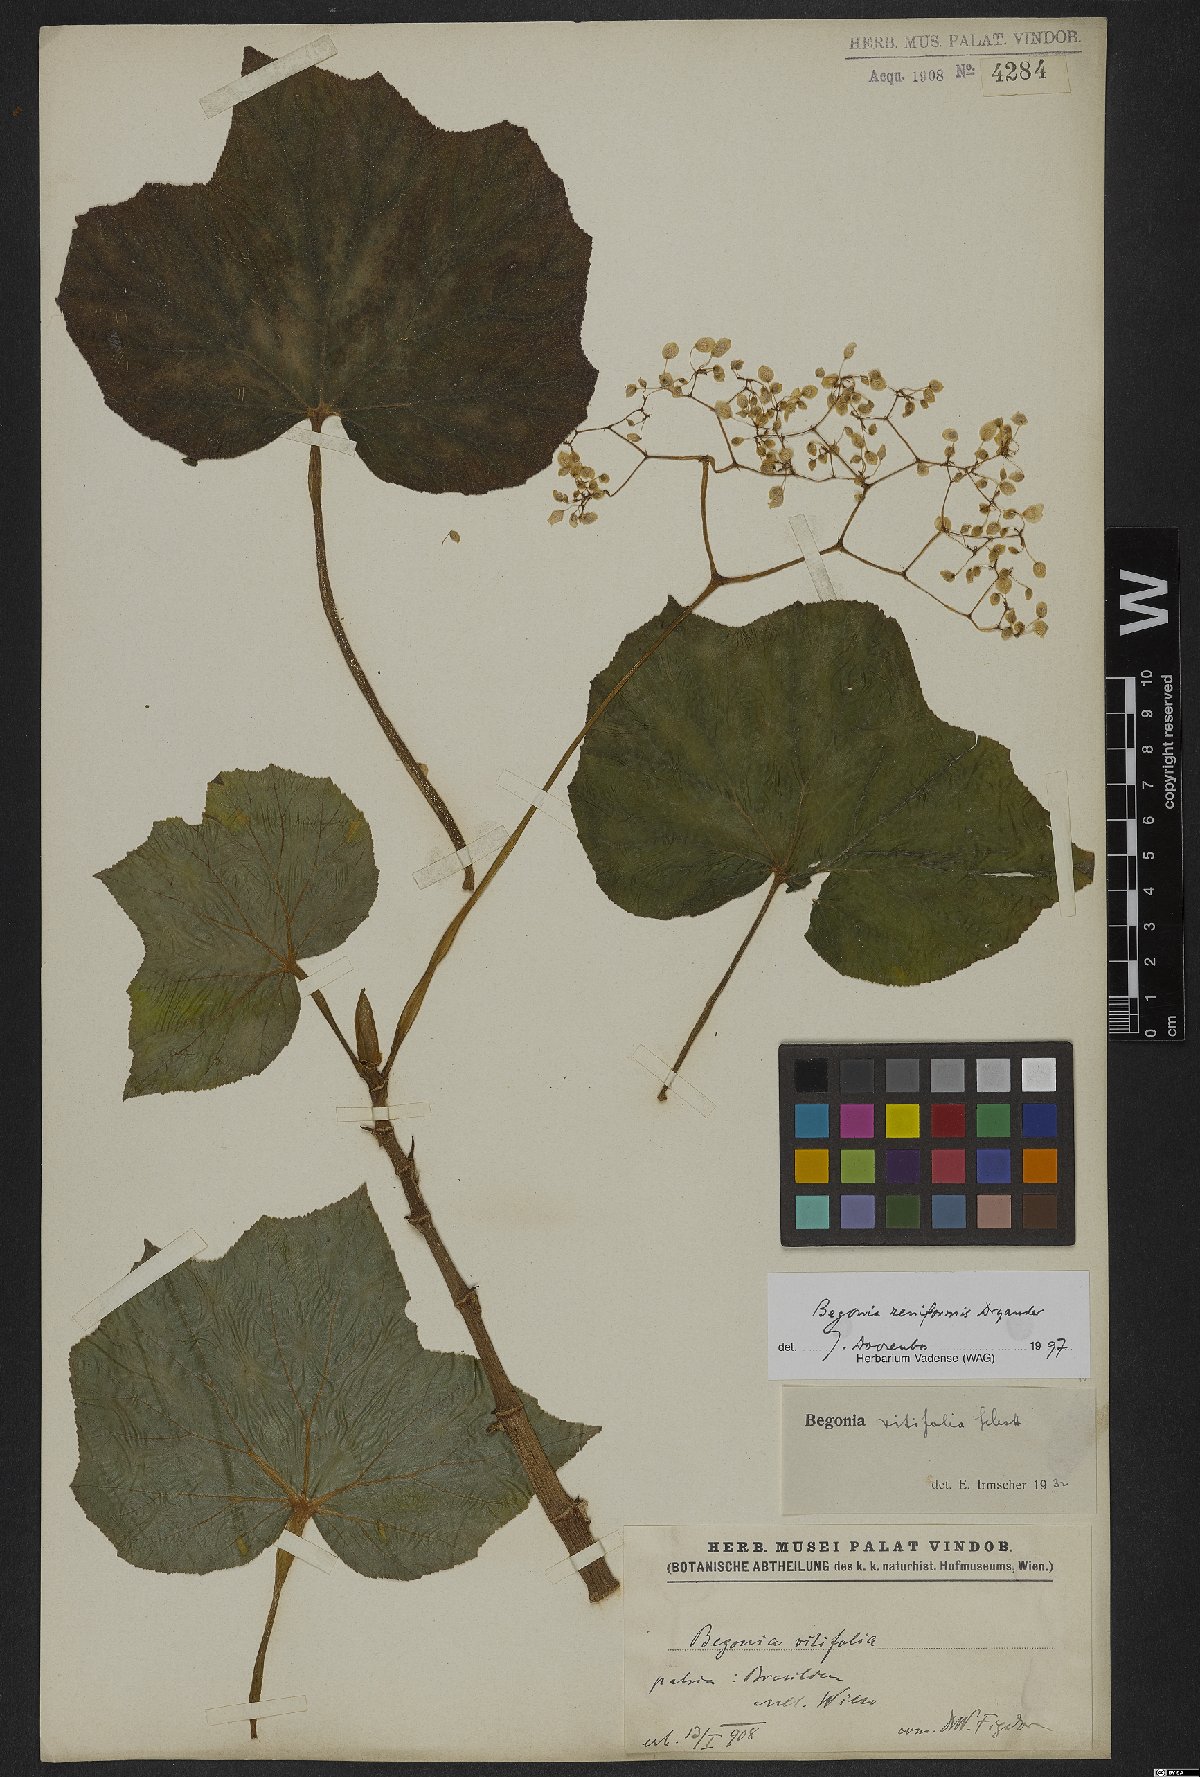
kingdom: Plantae
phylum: Tracheophyta
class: Magnoliopsida
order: Cucurbitales
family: Begoniaceae
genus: Begonia
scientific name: Begonia reniformis
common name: Grapeleaf begonia
